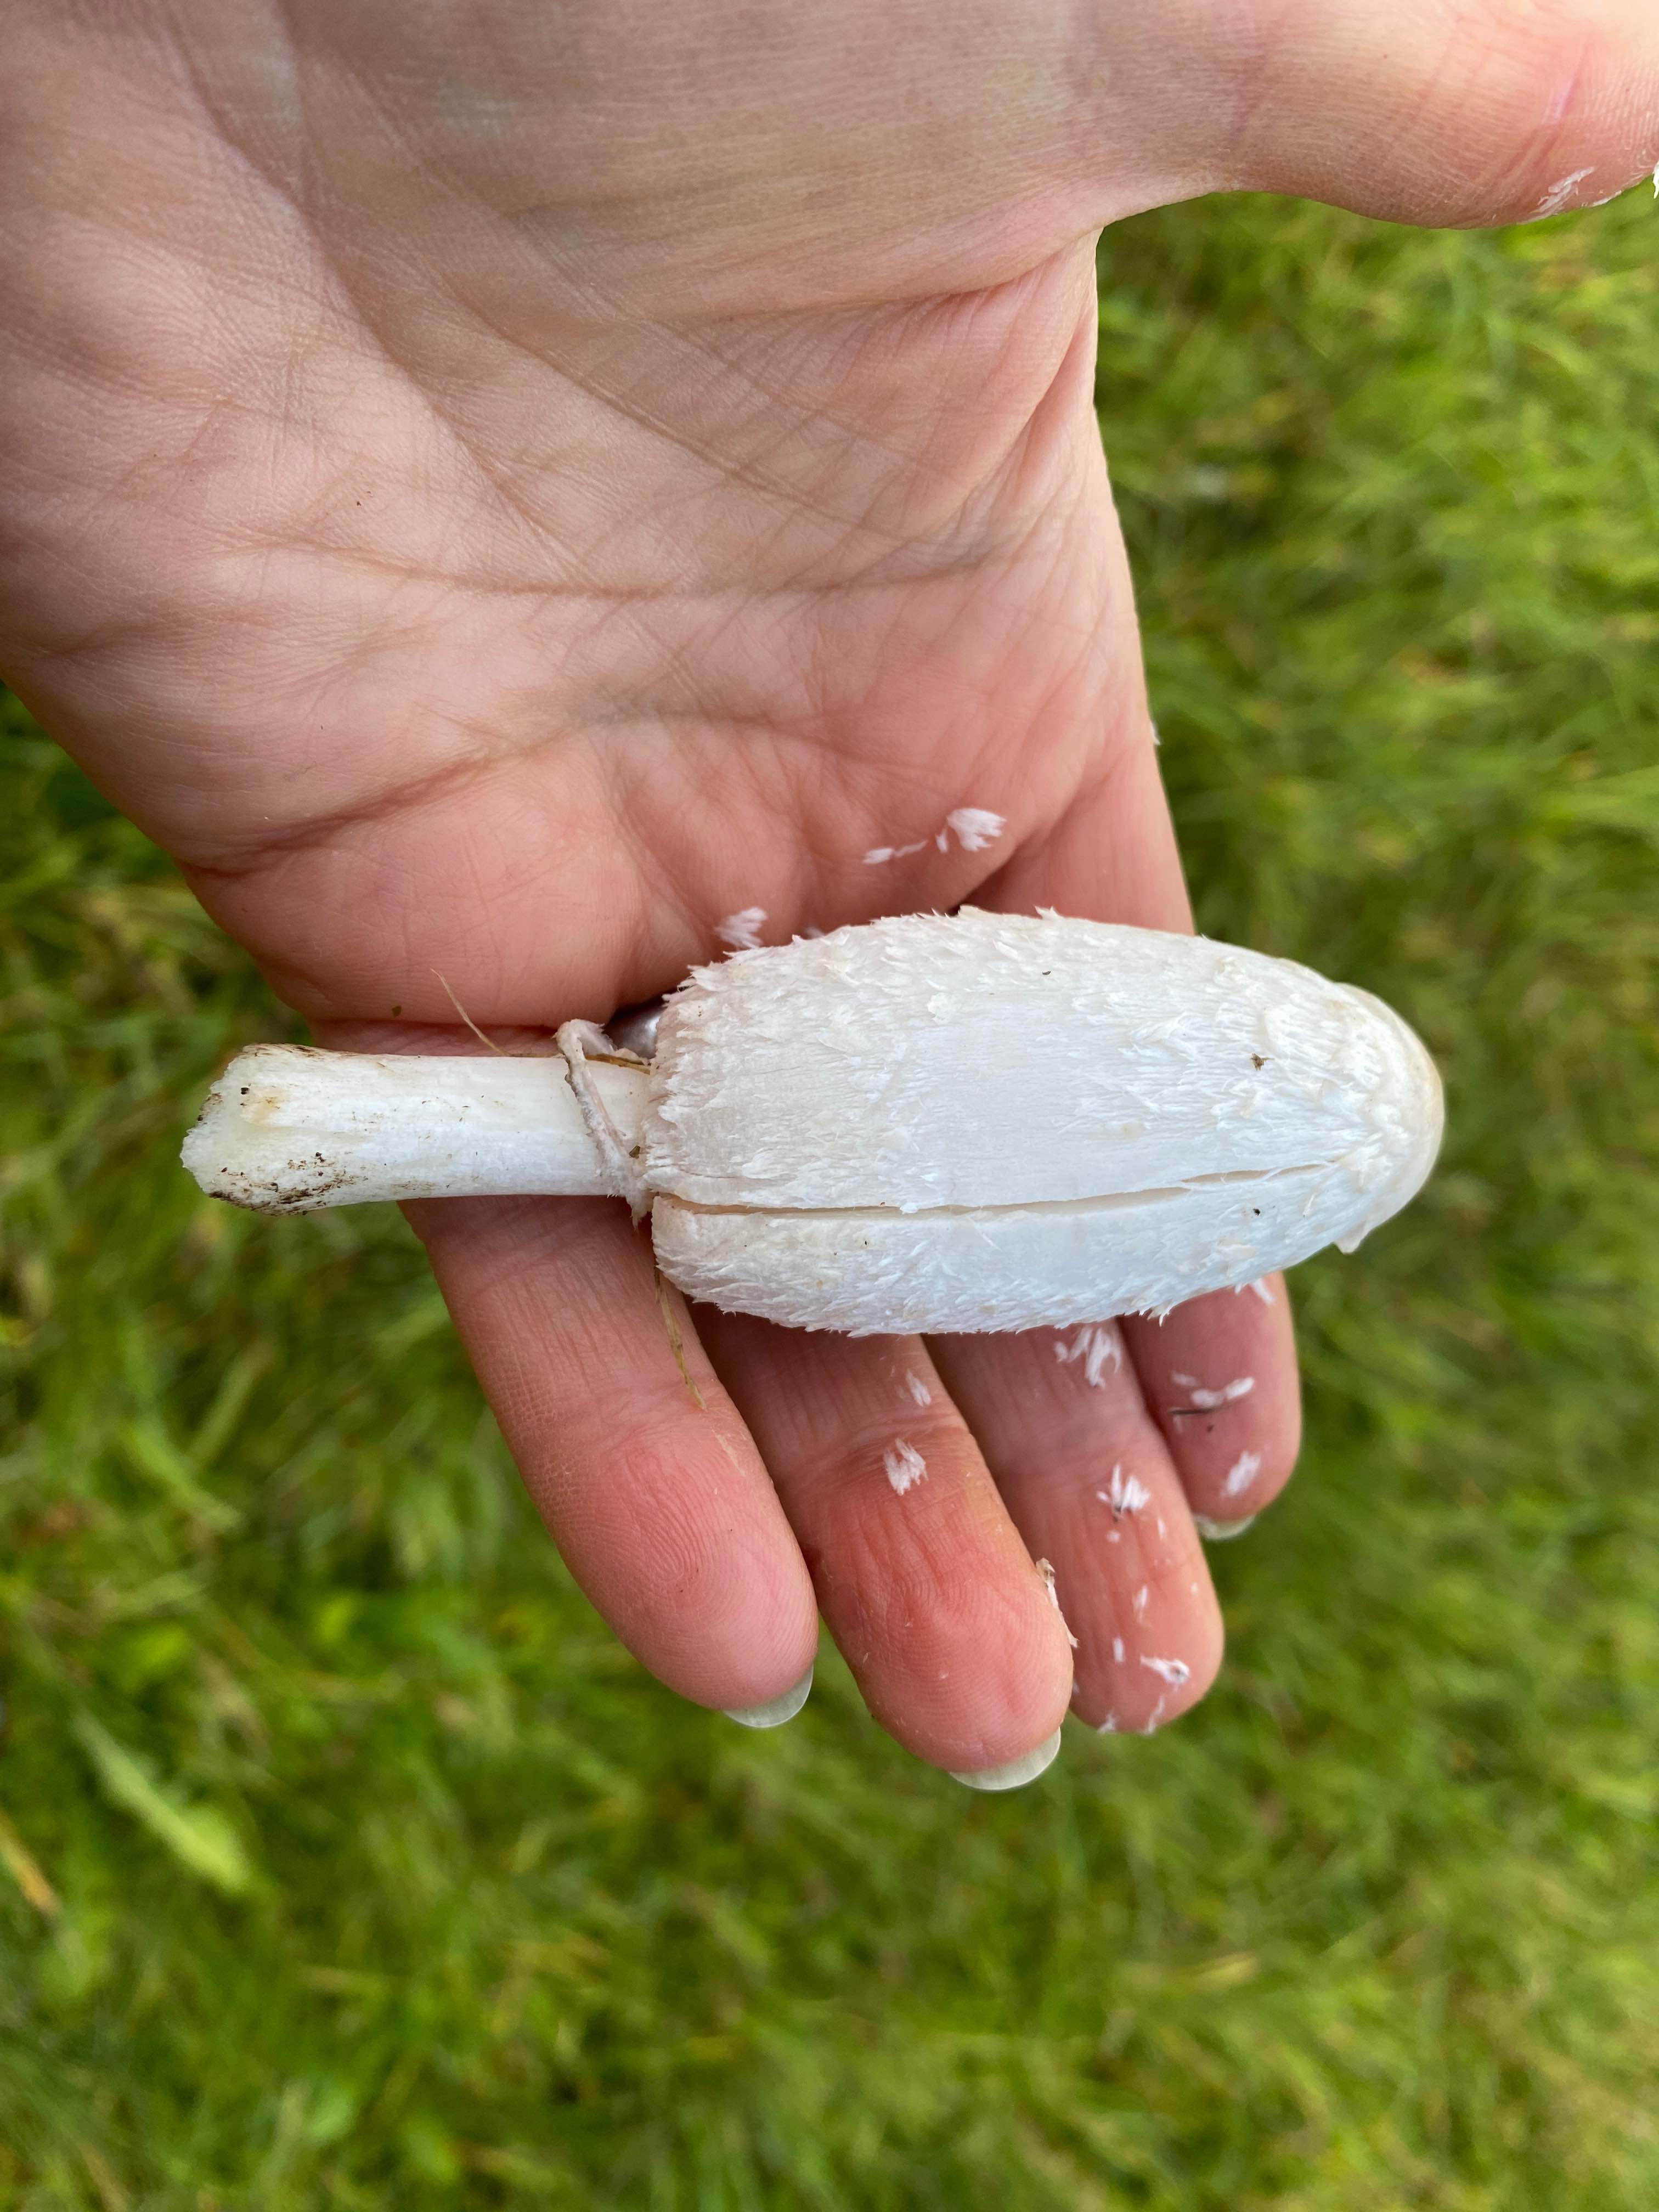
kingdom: Fungi
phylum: Basidiomycota
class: Agaricomycetes
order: Agaricales
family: Agaricaceae
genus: Coprinus
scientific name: Coprinus comatus
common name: stor parykhat
